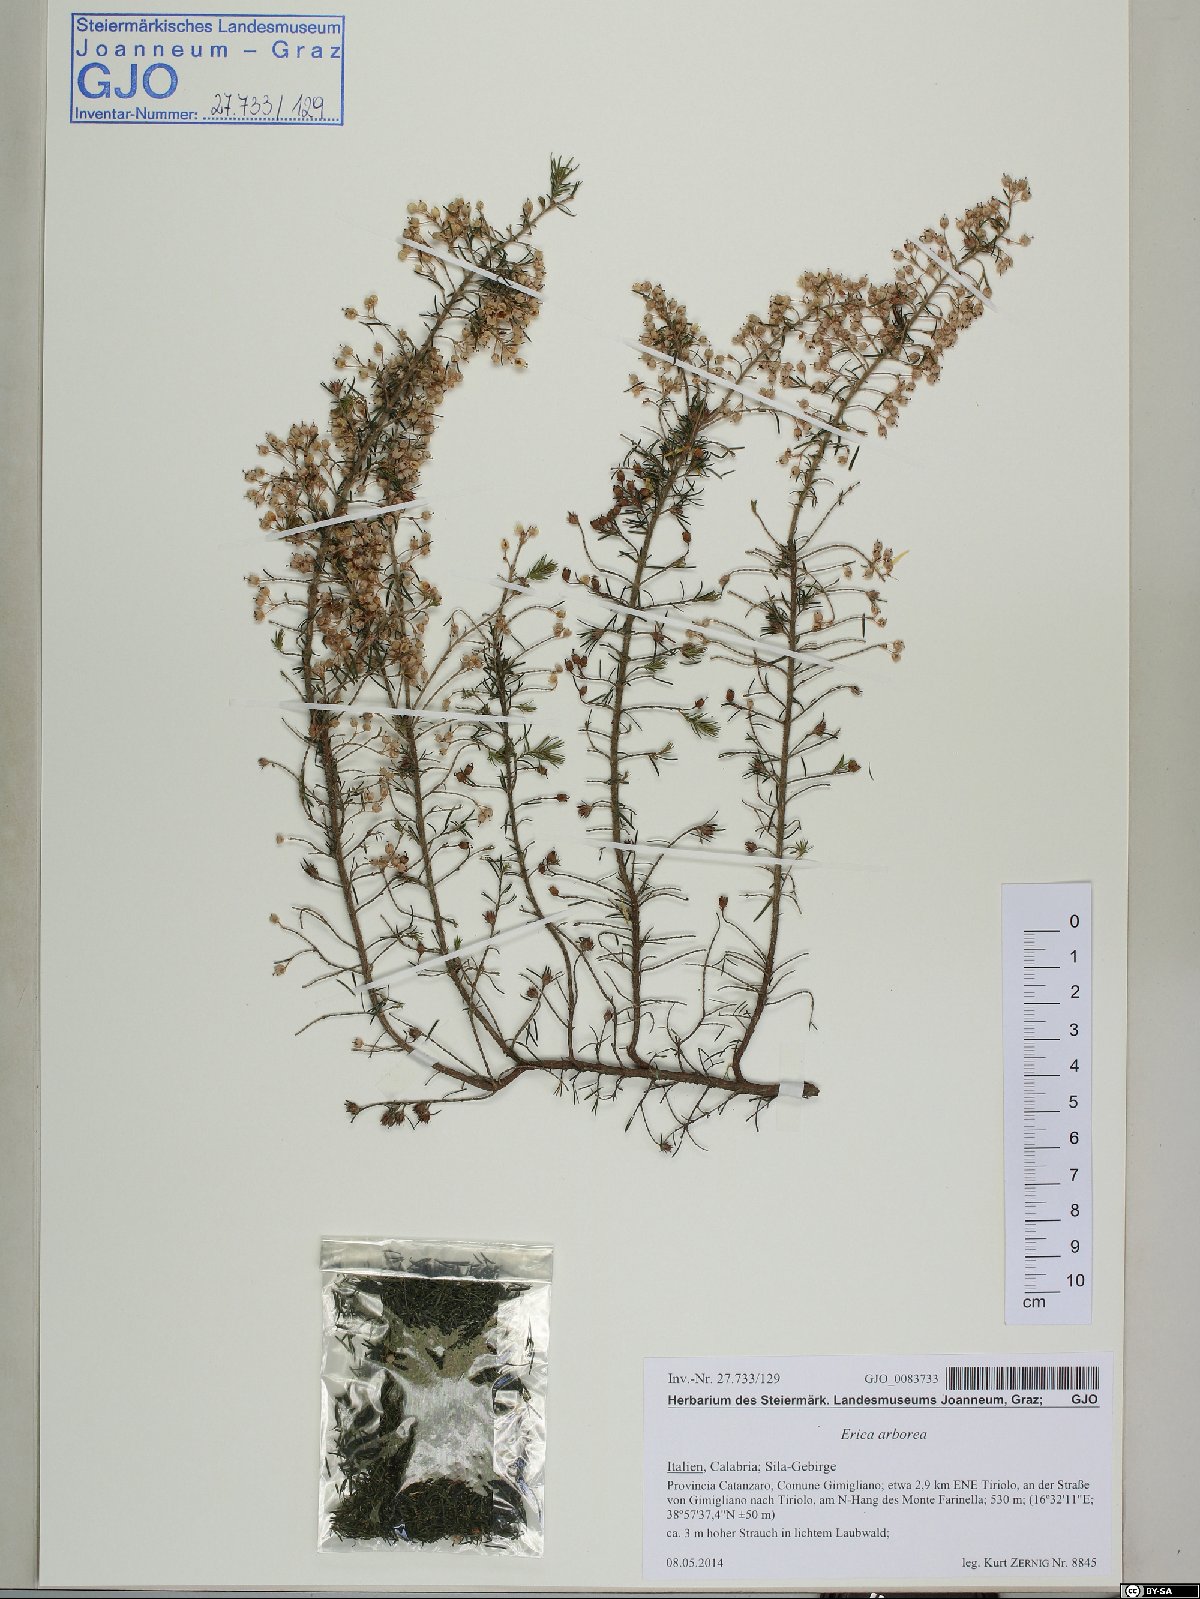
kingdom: Plantae
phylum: Tracheophyta
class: Magnoliopsida
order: Ericales
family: Ericaceae
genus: Erica
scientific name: Erica arborea
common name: Tree heath
